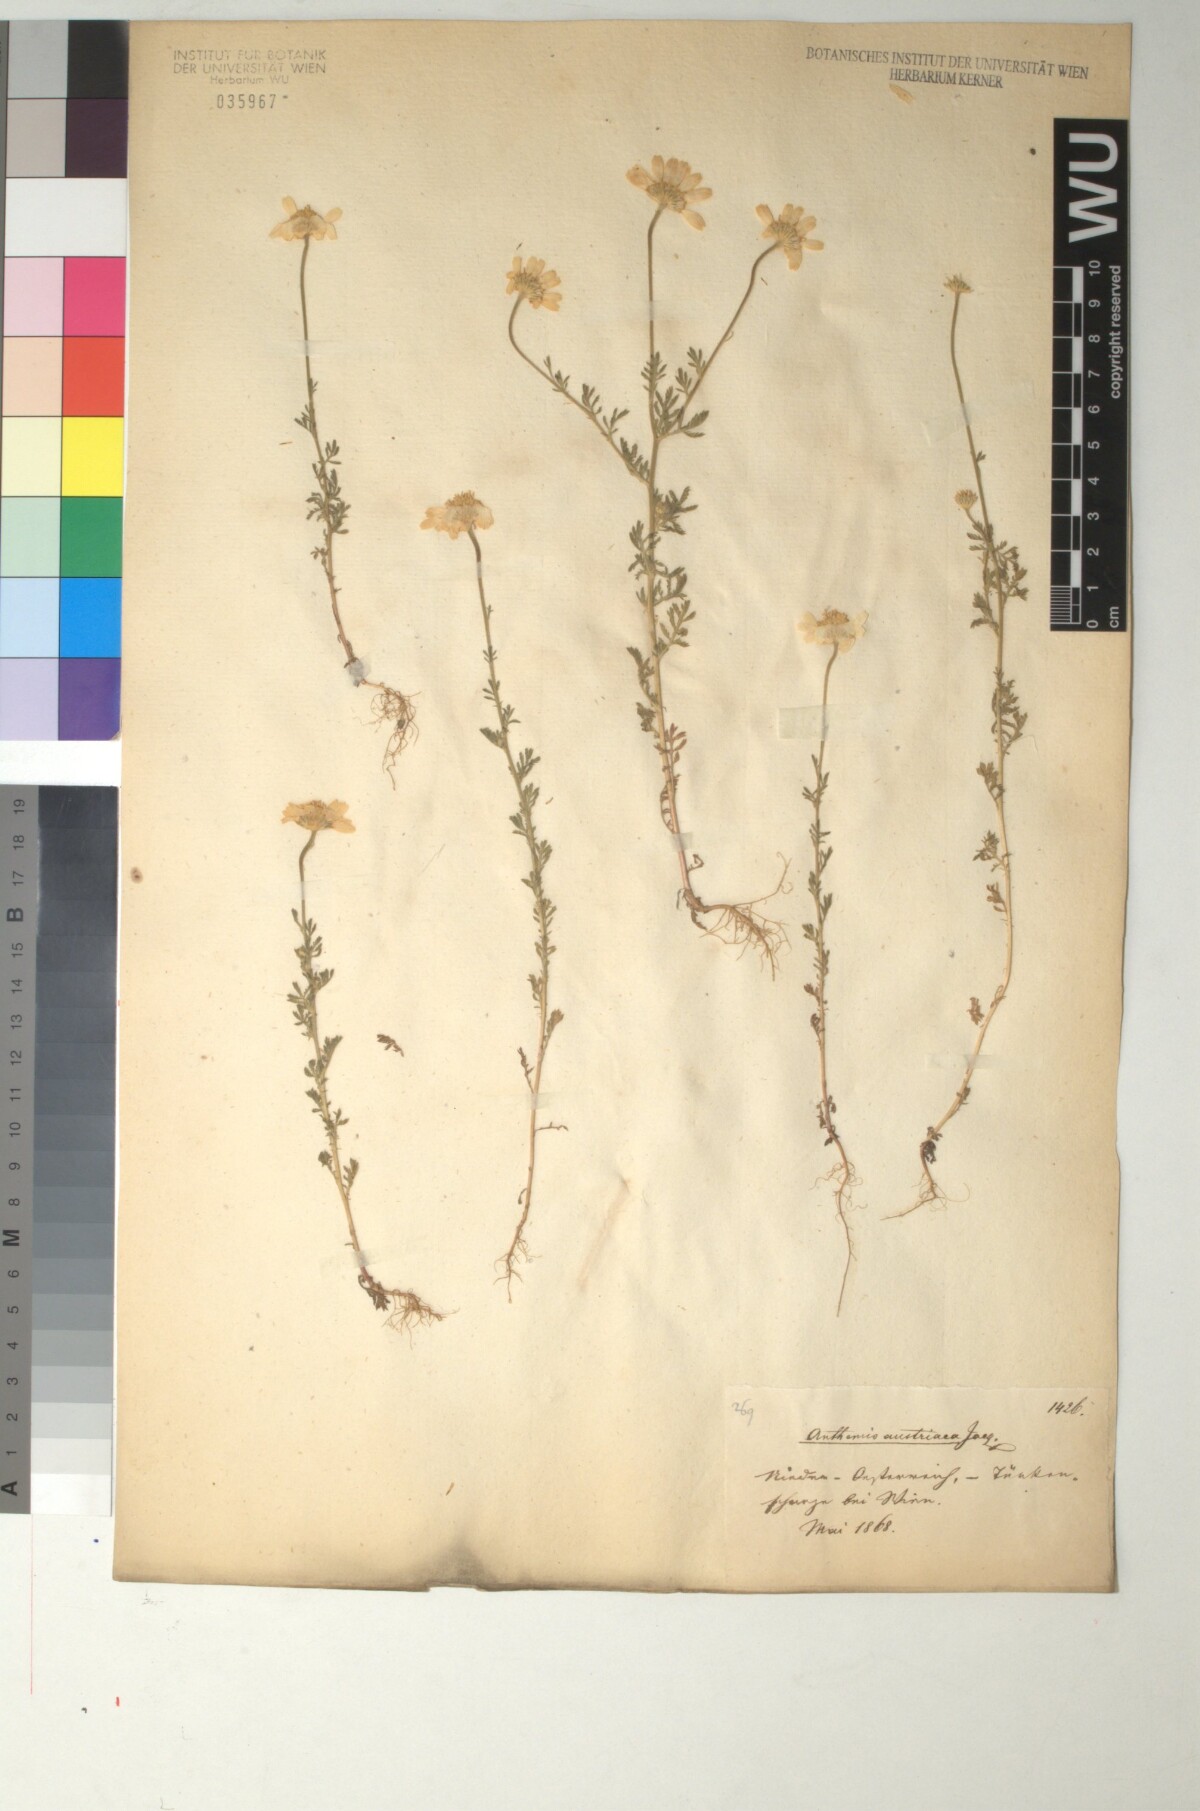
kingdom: Plantae
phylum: Tracheophyta
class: Magnoliopsida
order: Asterales
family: Asteraceae
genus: Cota
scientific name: Cota austriaca
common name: Austrian chamomile
